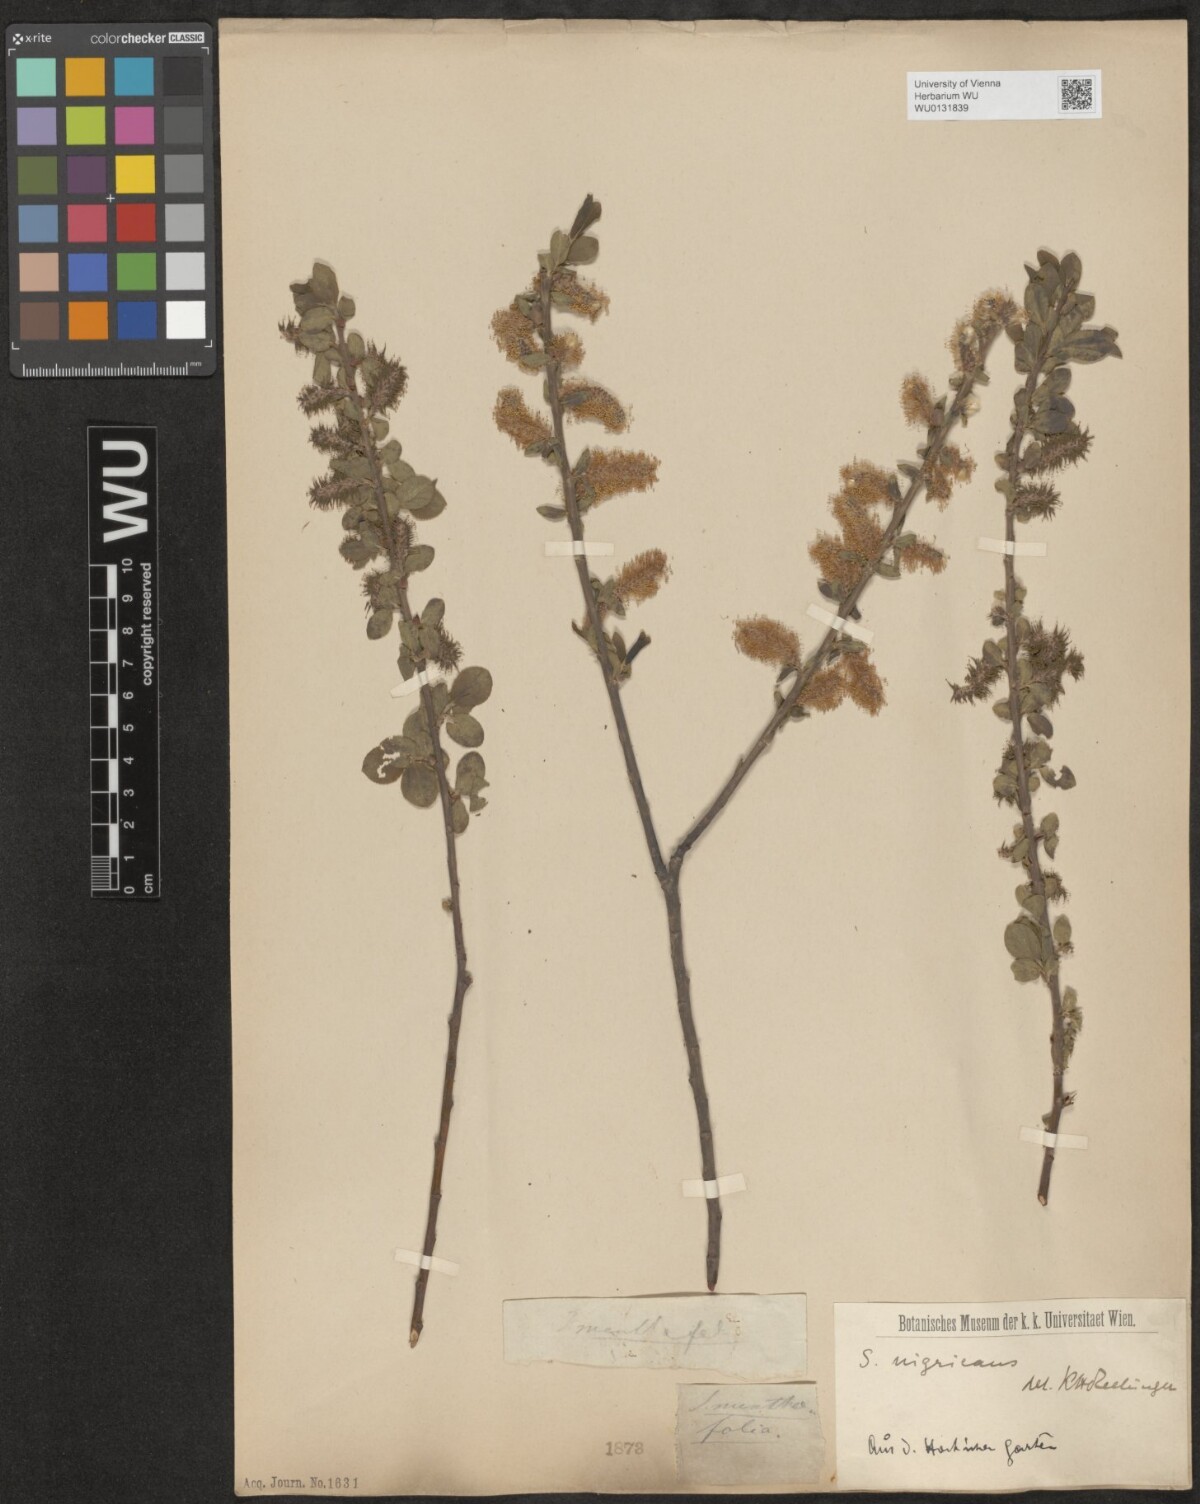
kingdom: Plantae
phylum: Tracheophyta
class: Magnoliopsida
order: Malpighiales
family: Salicaceae
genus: Salix
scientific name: Salix myrsinifolia
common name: Dark-leaved willow
